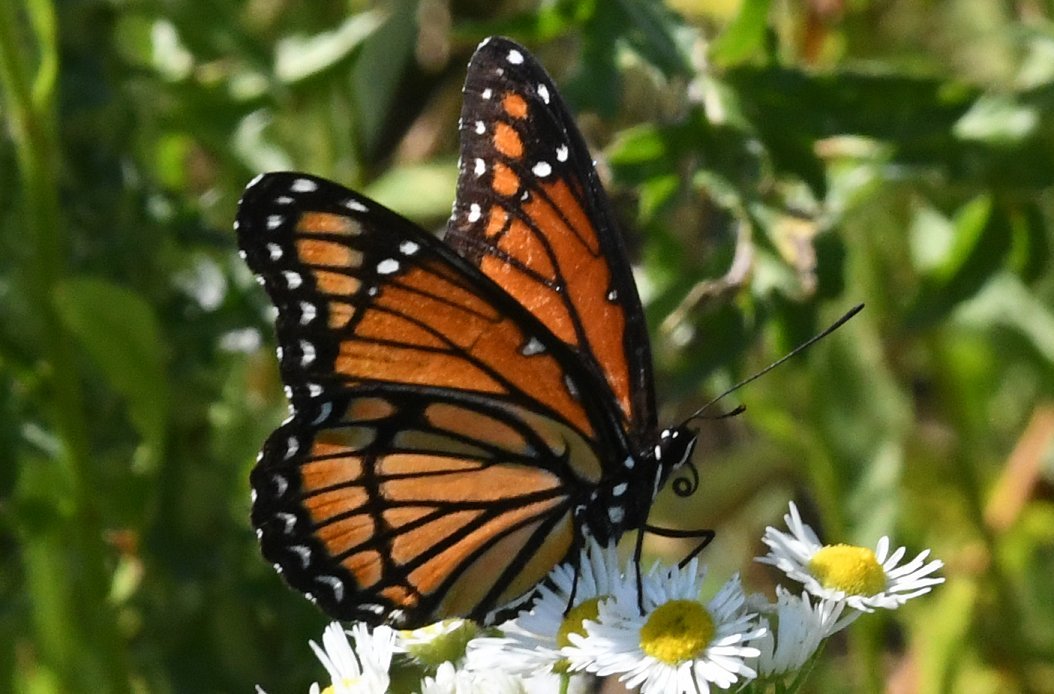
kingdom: Animalia
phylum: Arthropoda
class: Insecta
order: Lepidoptera
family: Nymphalidae
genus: Limenitis
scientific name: Limenitis archippus
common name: Viceroy
